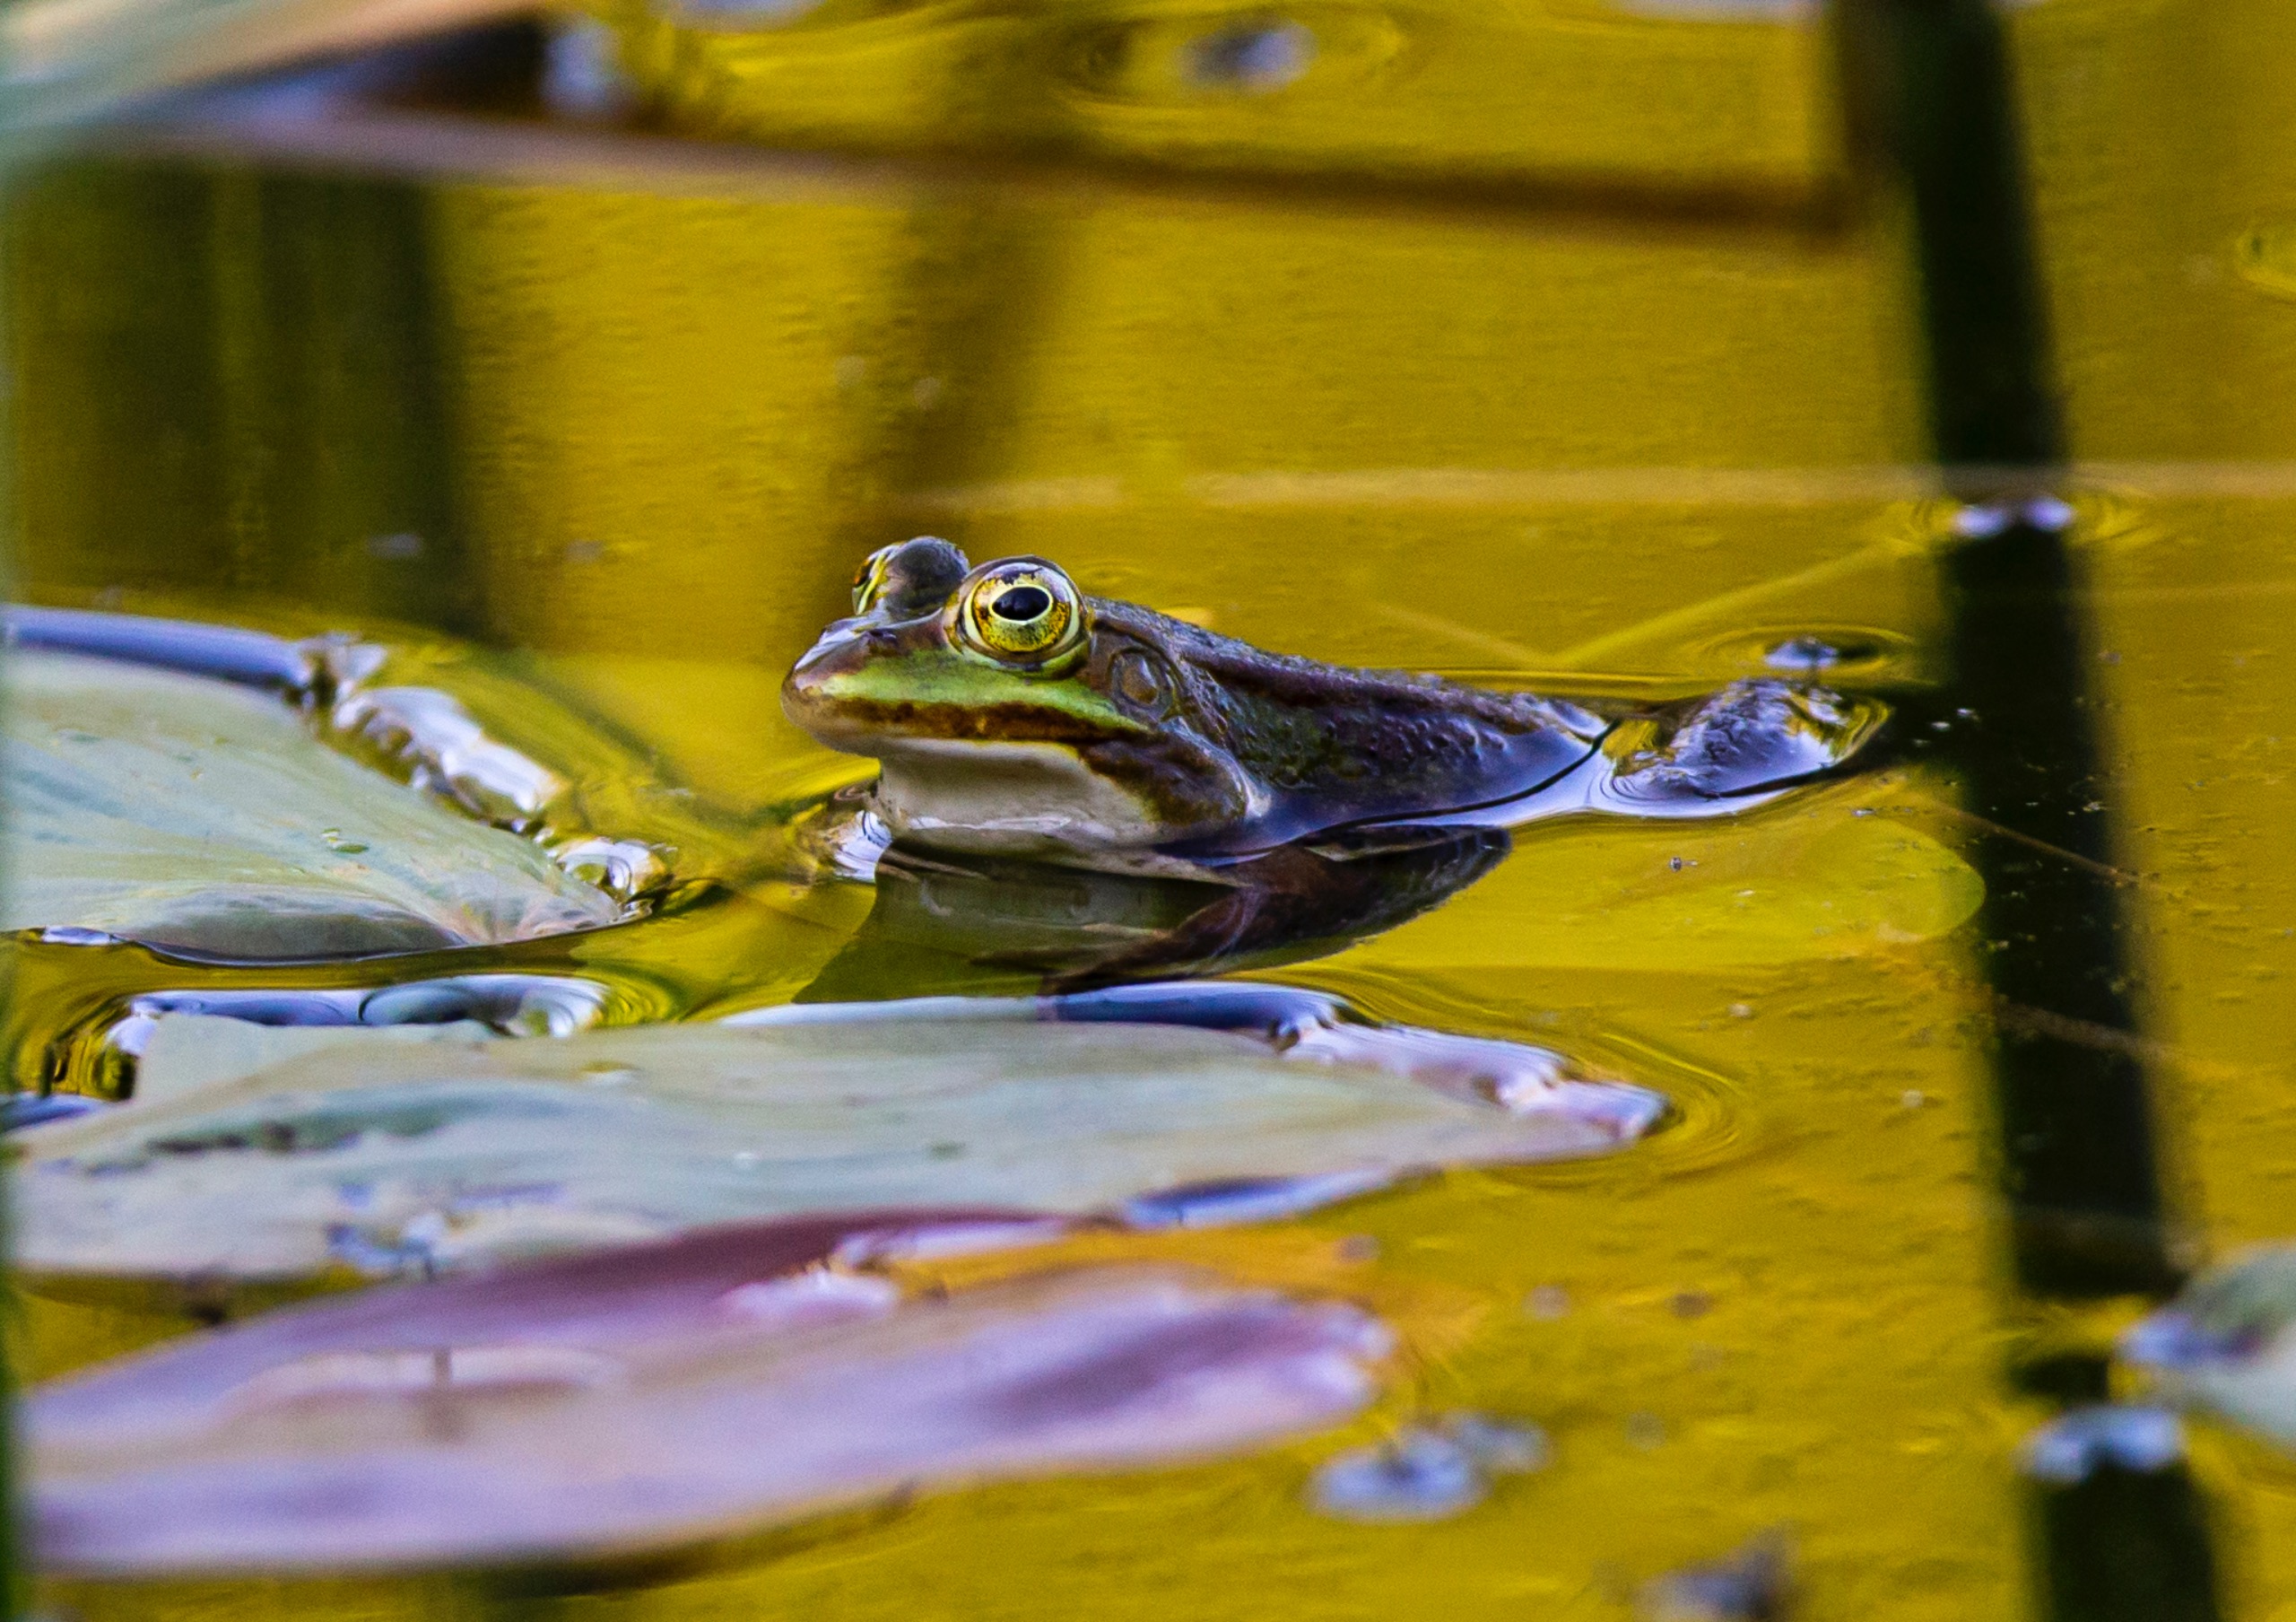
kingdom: Animalia
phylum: Chordata
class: Amphibia
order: Anura
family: Ranidae
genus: Pelophylax
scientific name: Pelophylax lessonae
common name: Grøn frø
